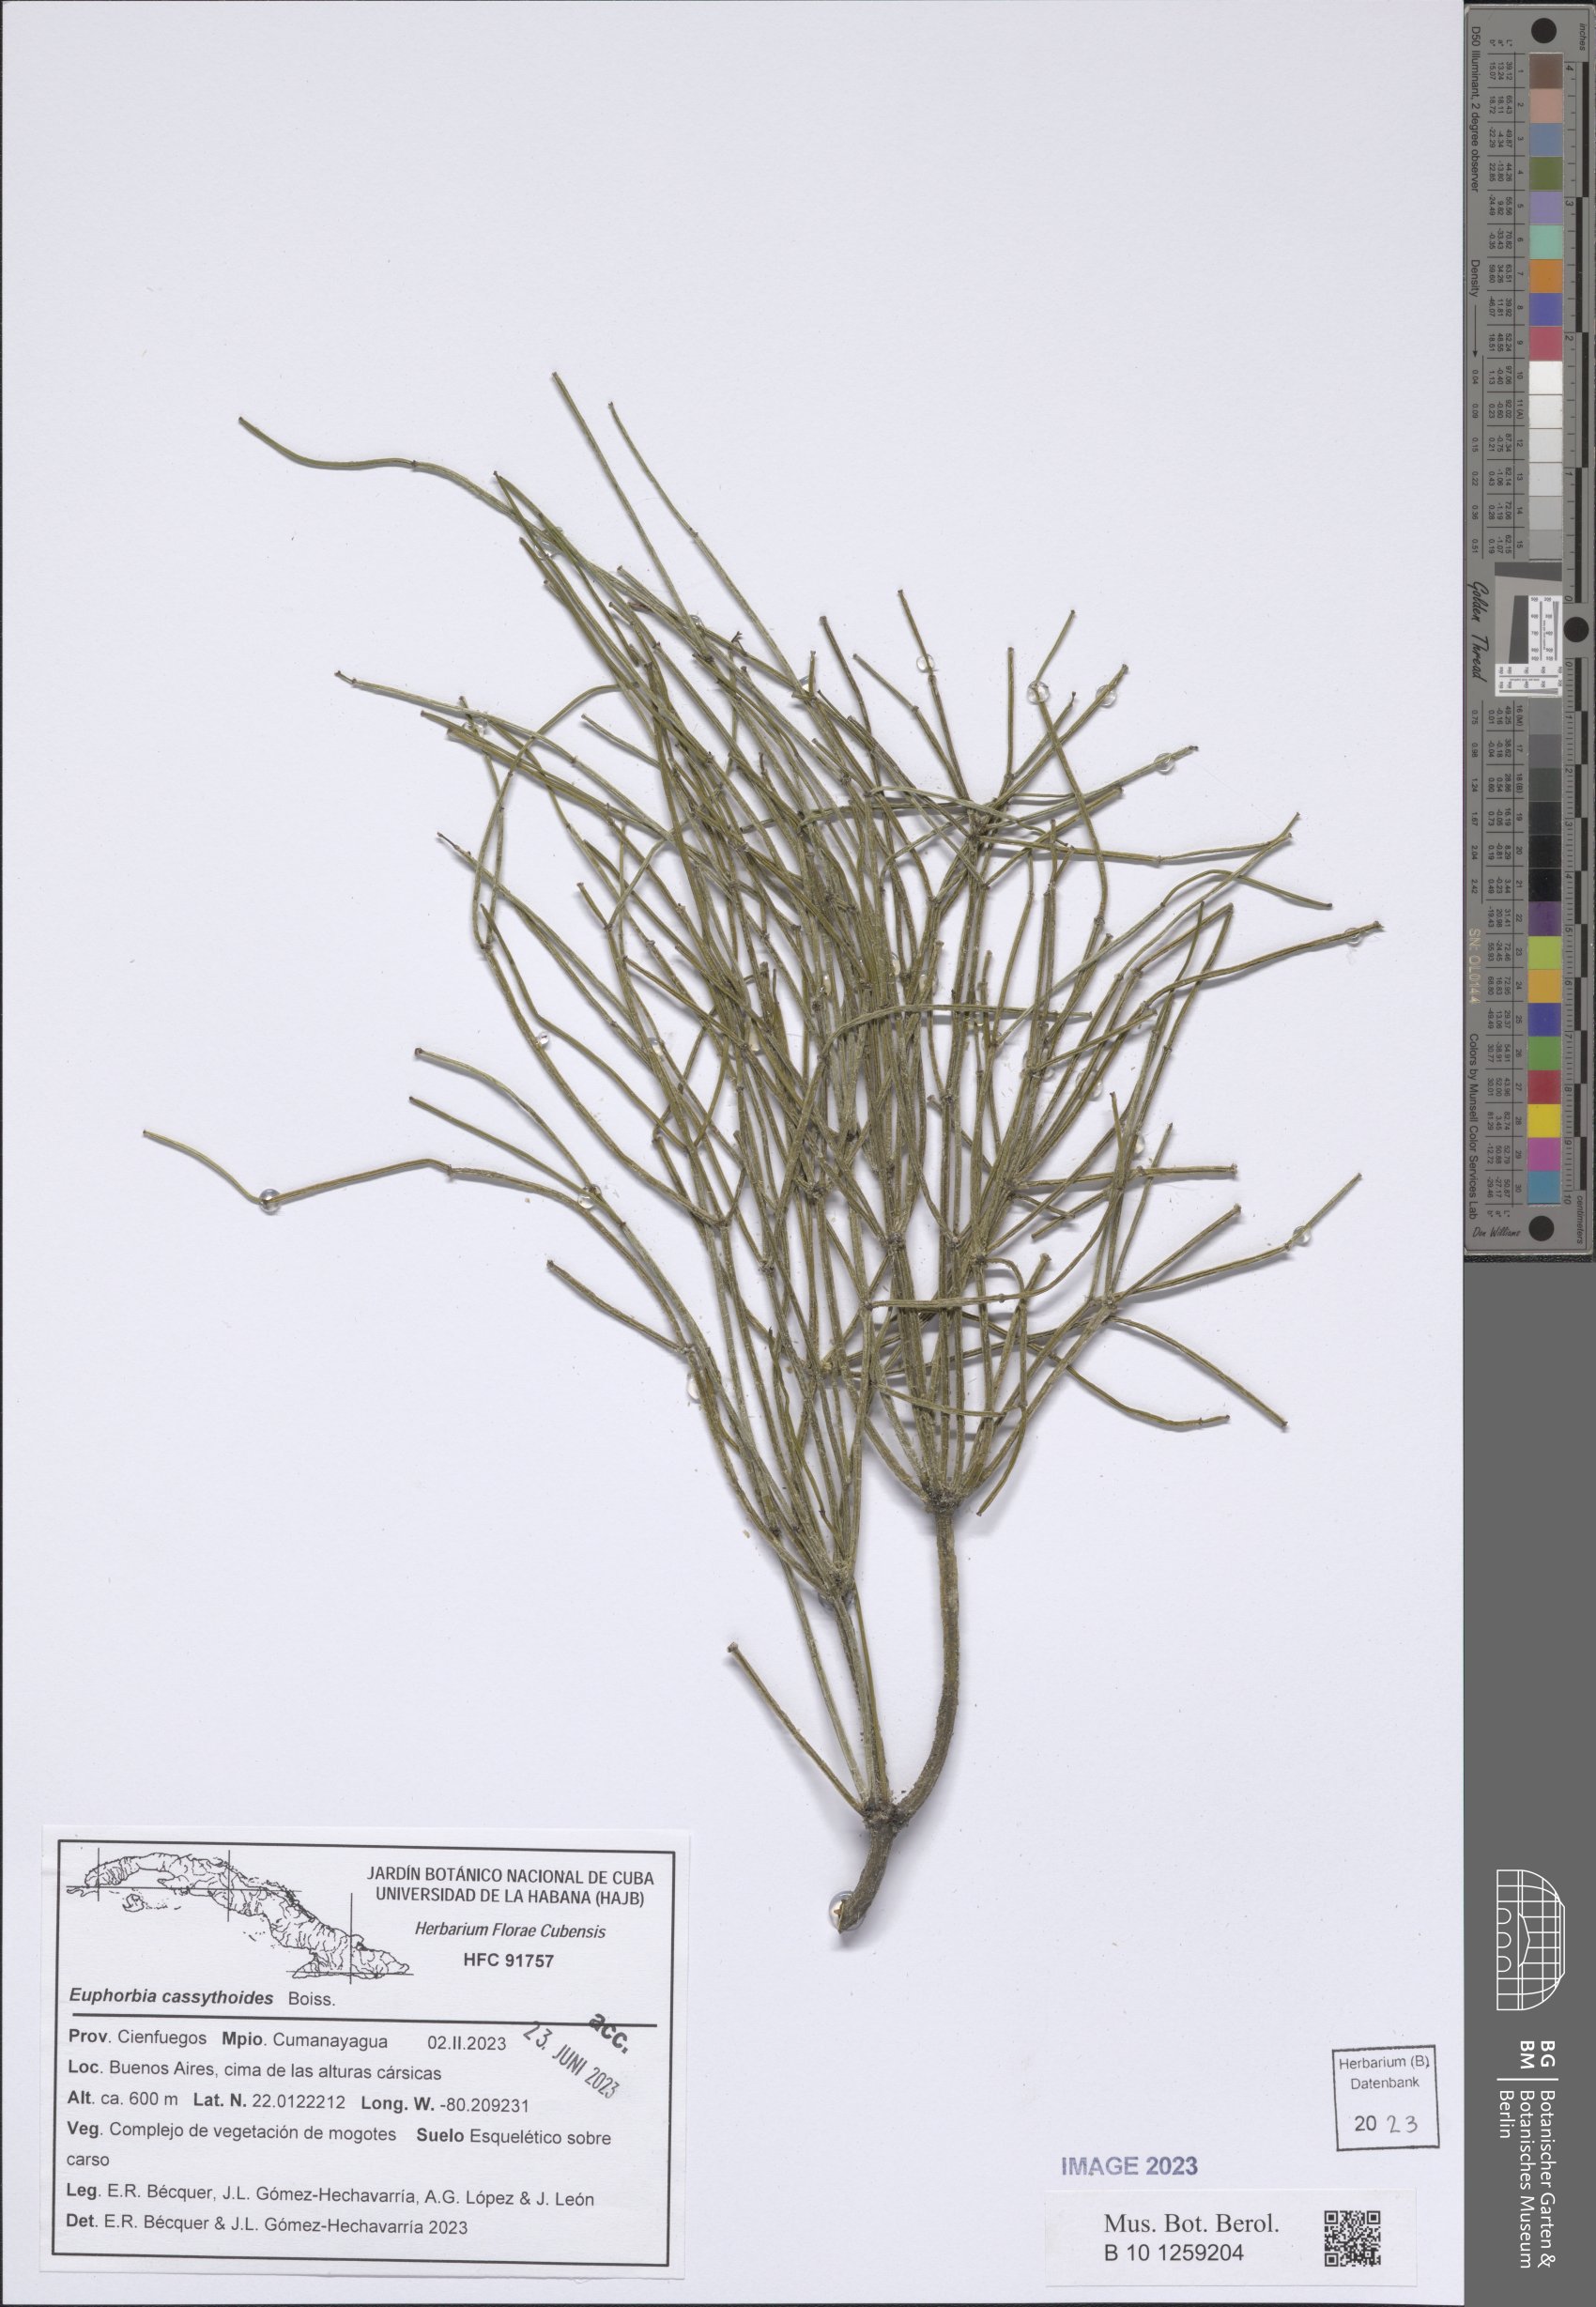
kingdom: Plantae
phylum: Tracheophyta
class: Magnoliopsida
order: Malpighiales
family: Euphorbiaceae
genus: Euphorbia
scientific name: Euphorbia cassythoides
